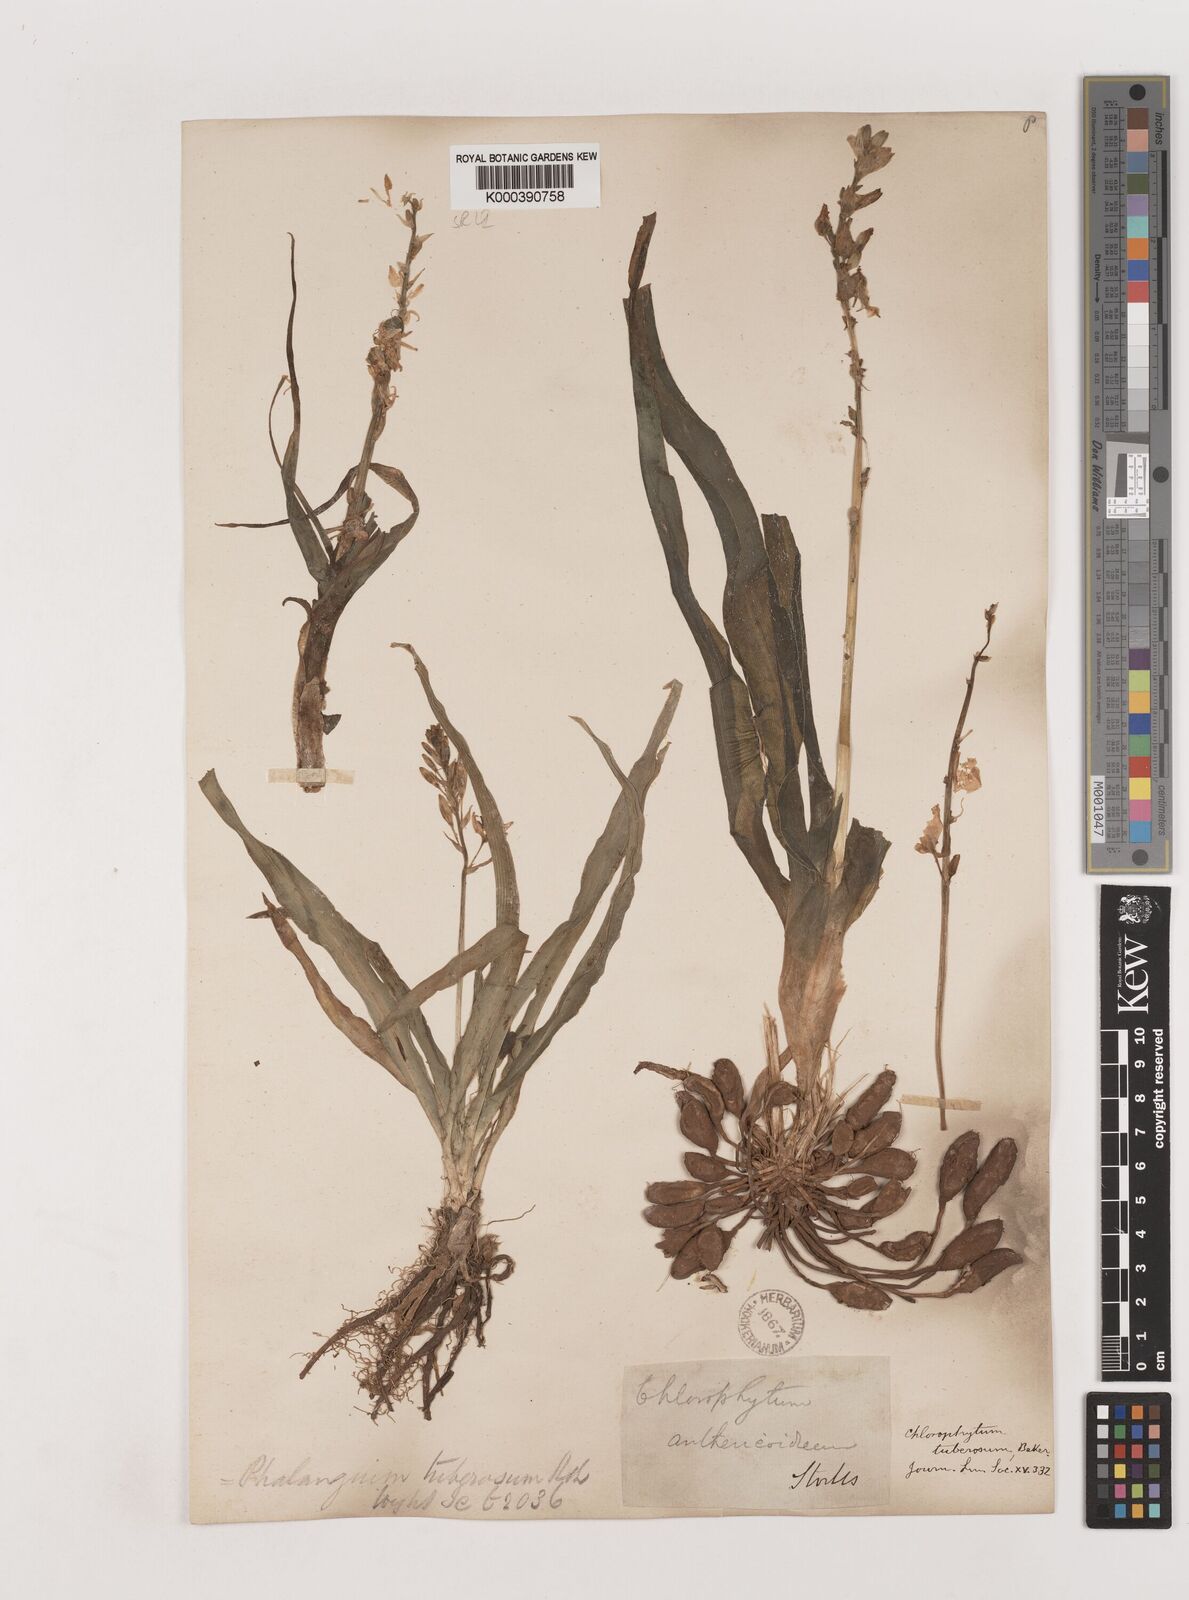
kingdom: Plantae
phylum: Tracheophyta
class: Liliopsida
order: Asparagales
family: Asparagaceae
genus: Chlorophytum
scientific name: Chlorophytum tuberosum
